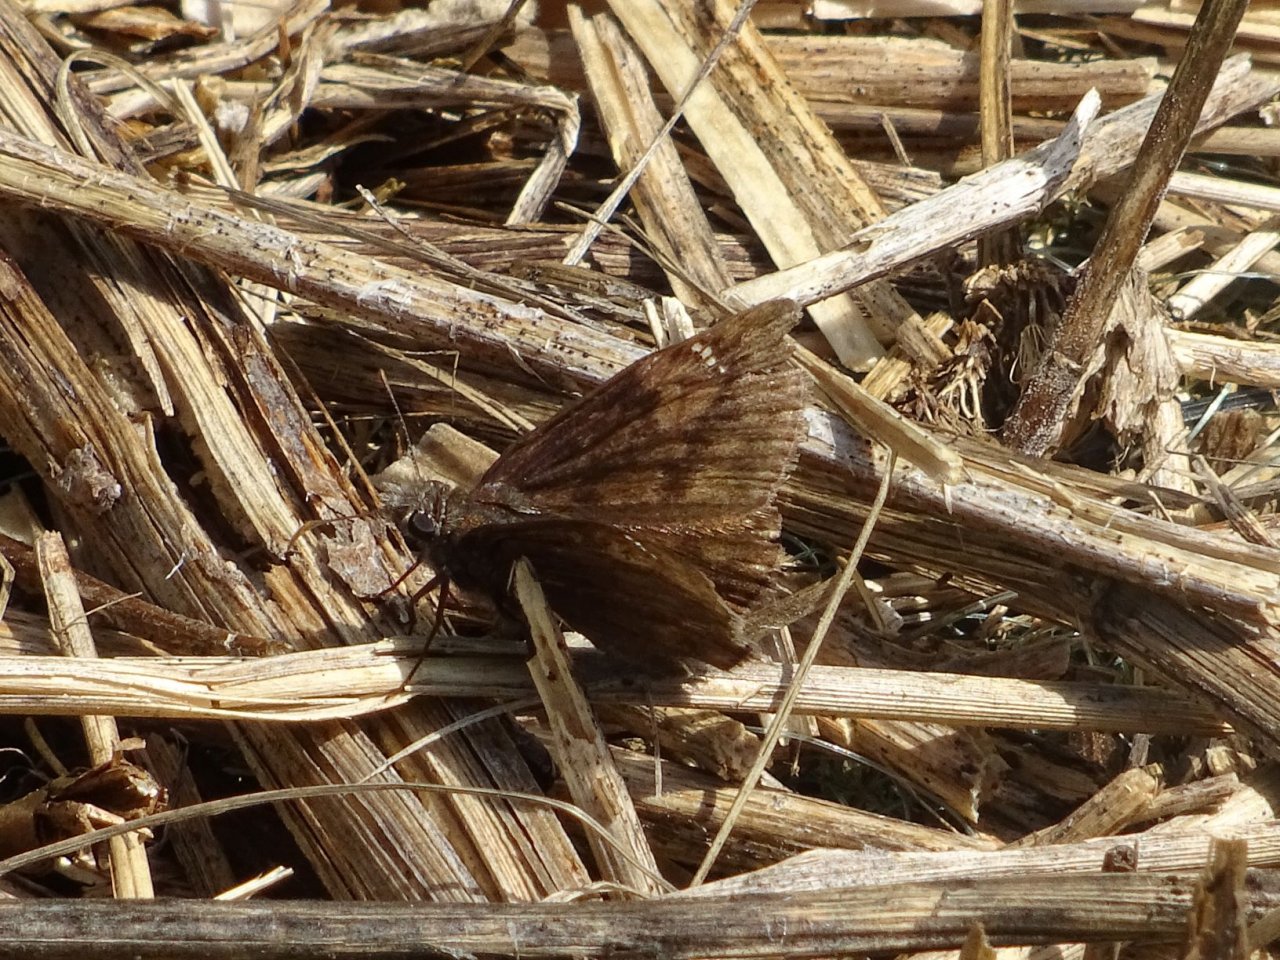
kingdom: Animalia
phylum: Arthropoda
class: Insecta
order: Lepidoptera
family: Hesperiidae
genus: Gesta
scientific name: Gesta
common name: Wild Indigo Duskywing
